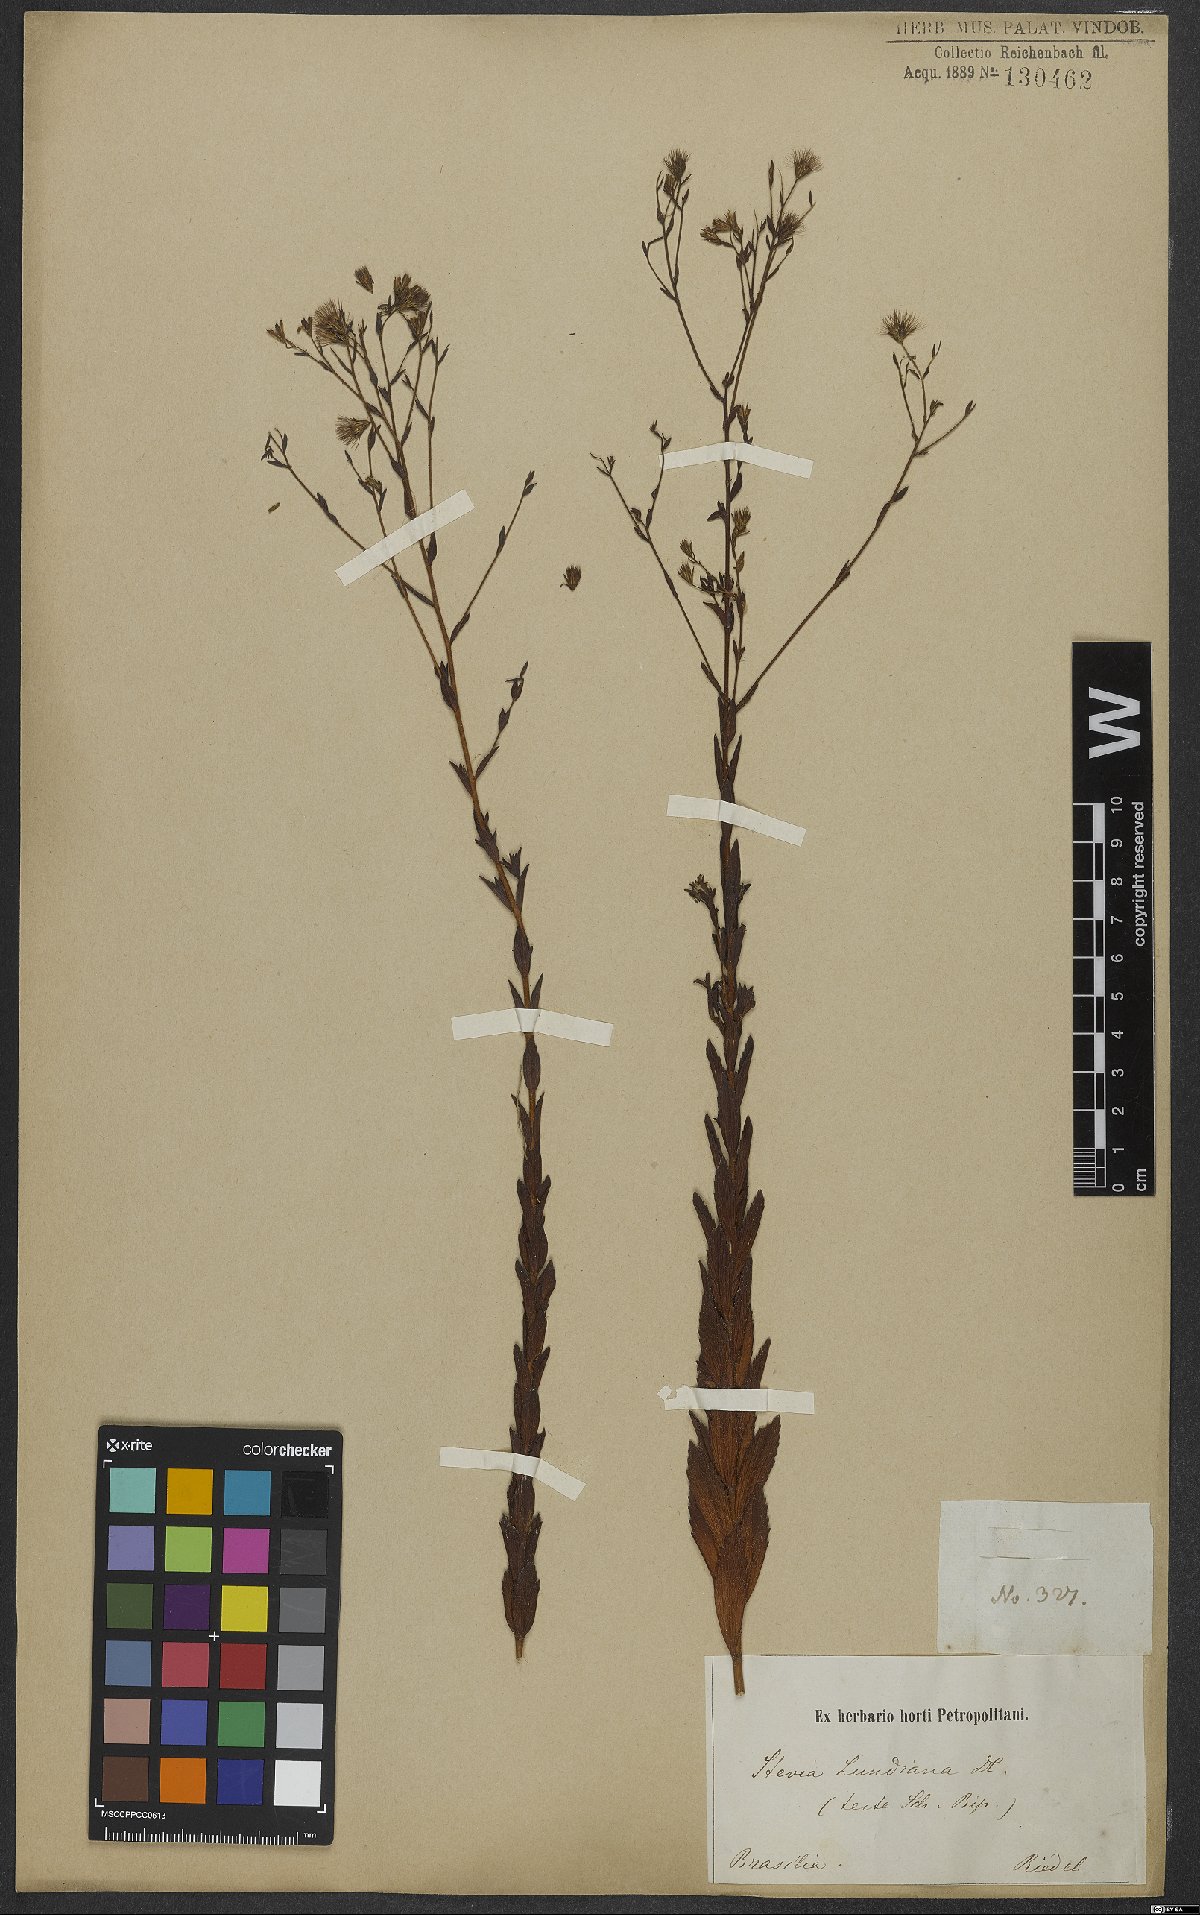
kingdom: Plantae
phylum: Tracheophyta
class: Magnoliopsida
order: Asterales
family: Asteraceae
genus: Stevia
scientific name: Stevia lundiana
